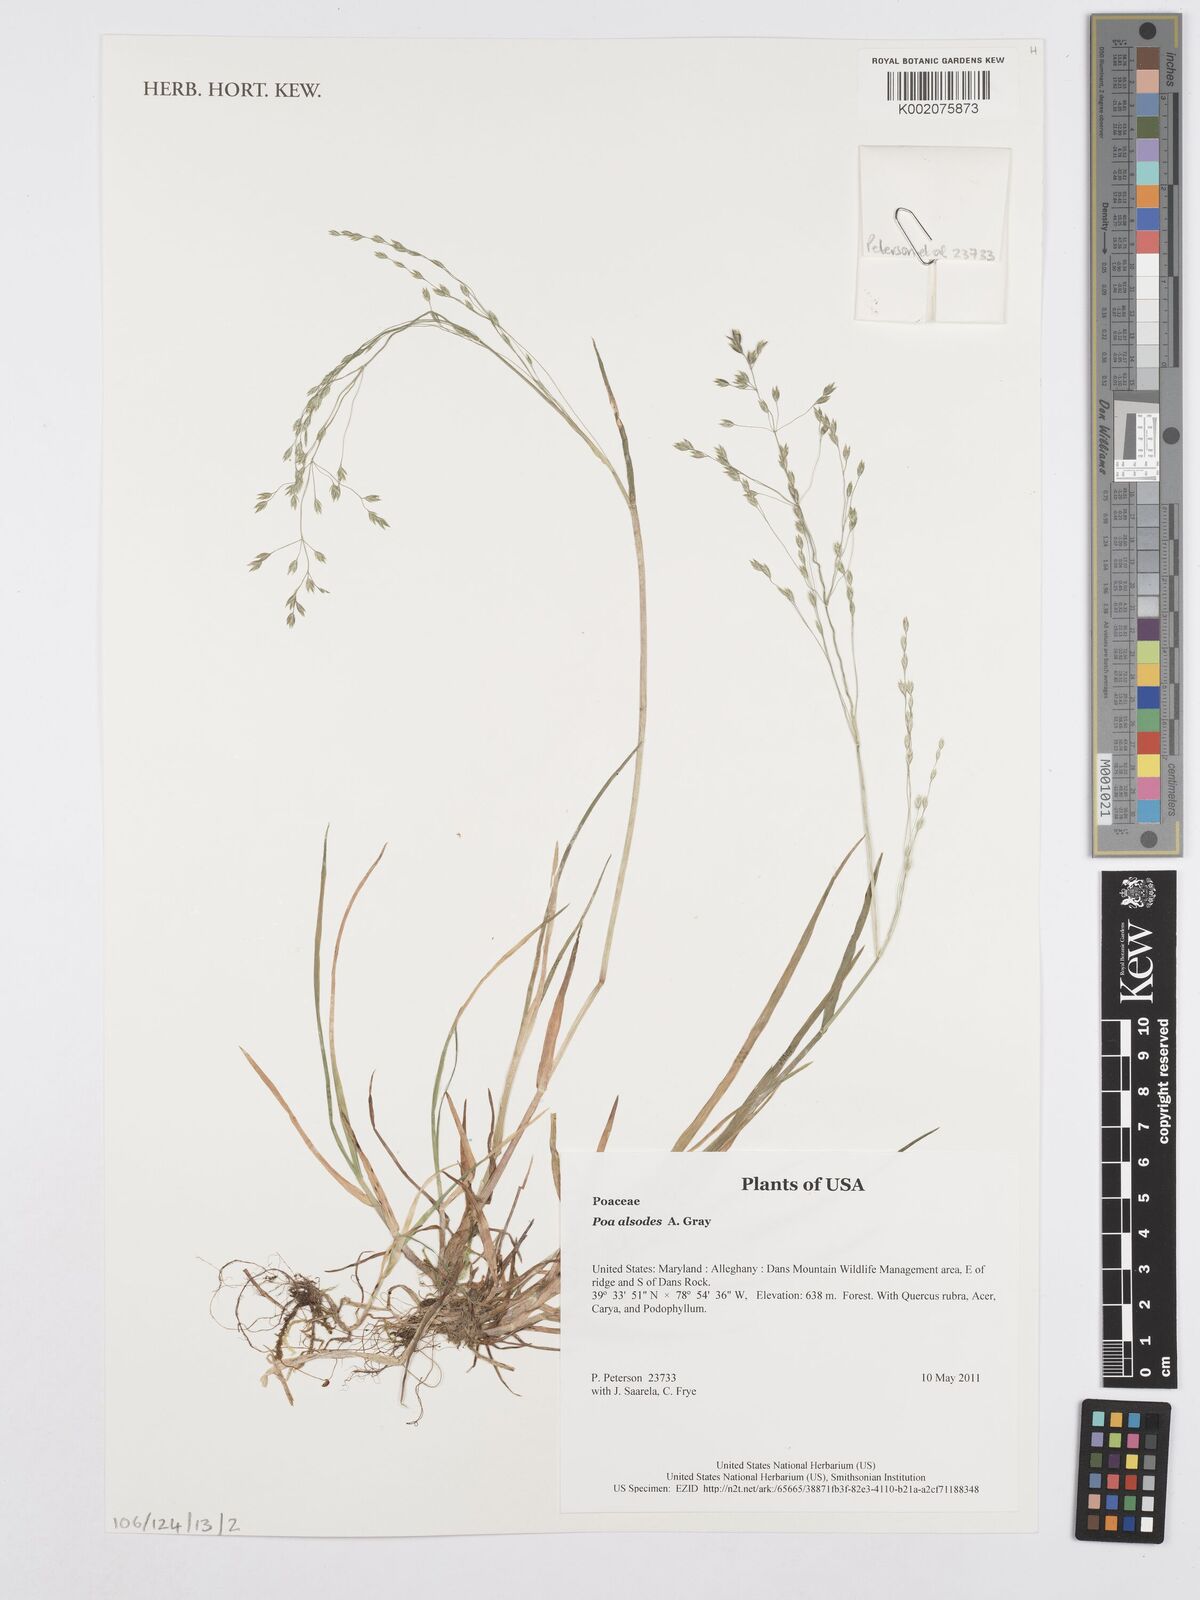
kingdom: Plantae
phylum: Tracheophyta
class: Liliopsida
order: Poales
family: Poaceae
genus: Poa
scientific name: Poa alsodes
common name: Grove bluegrass
